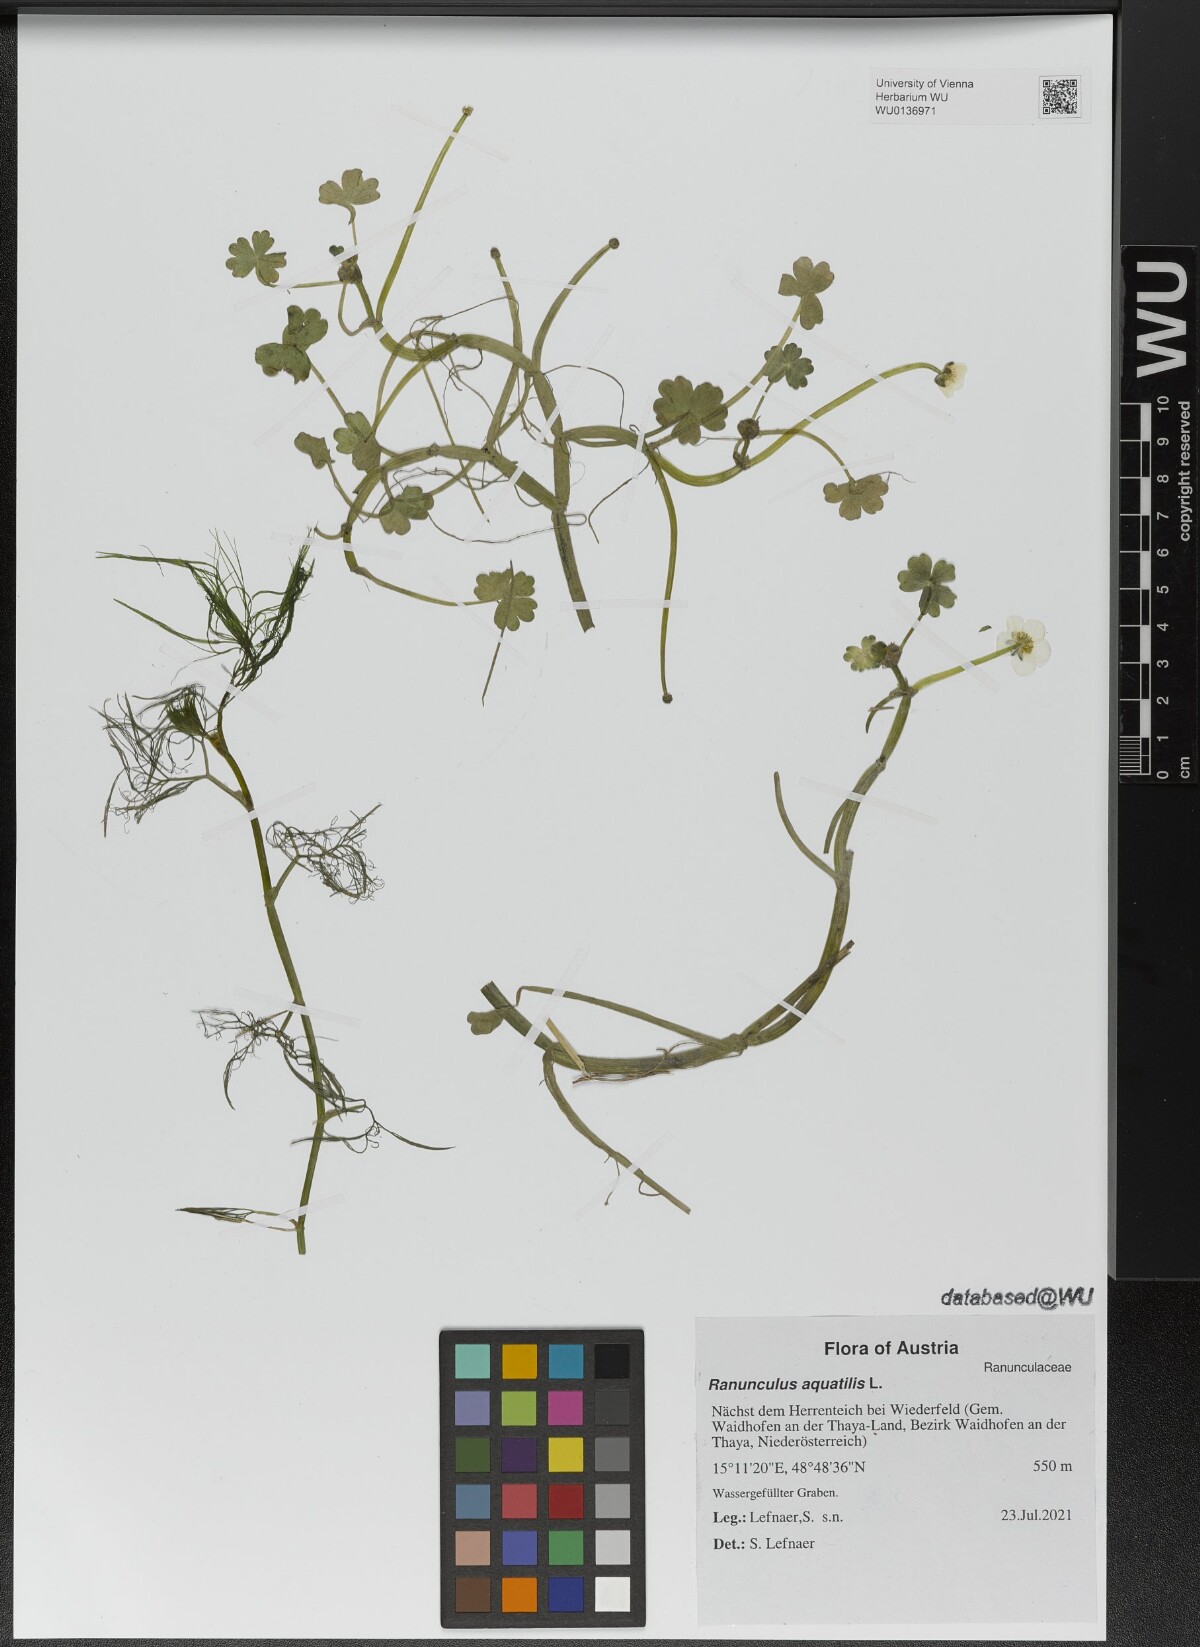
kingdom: Plantae
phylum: Tracheophyta
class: Magnoliopsida
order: Ranunculales
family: Ranunculaceae
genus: Ranunculus
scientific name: Ranunculus peltatus
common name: Pond water-crowfoot
